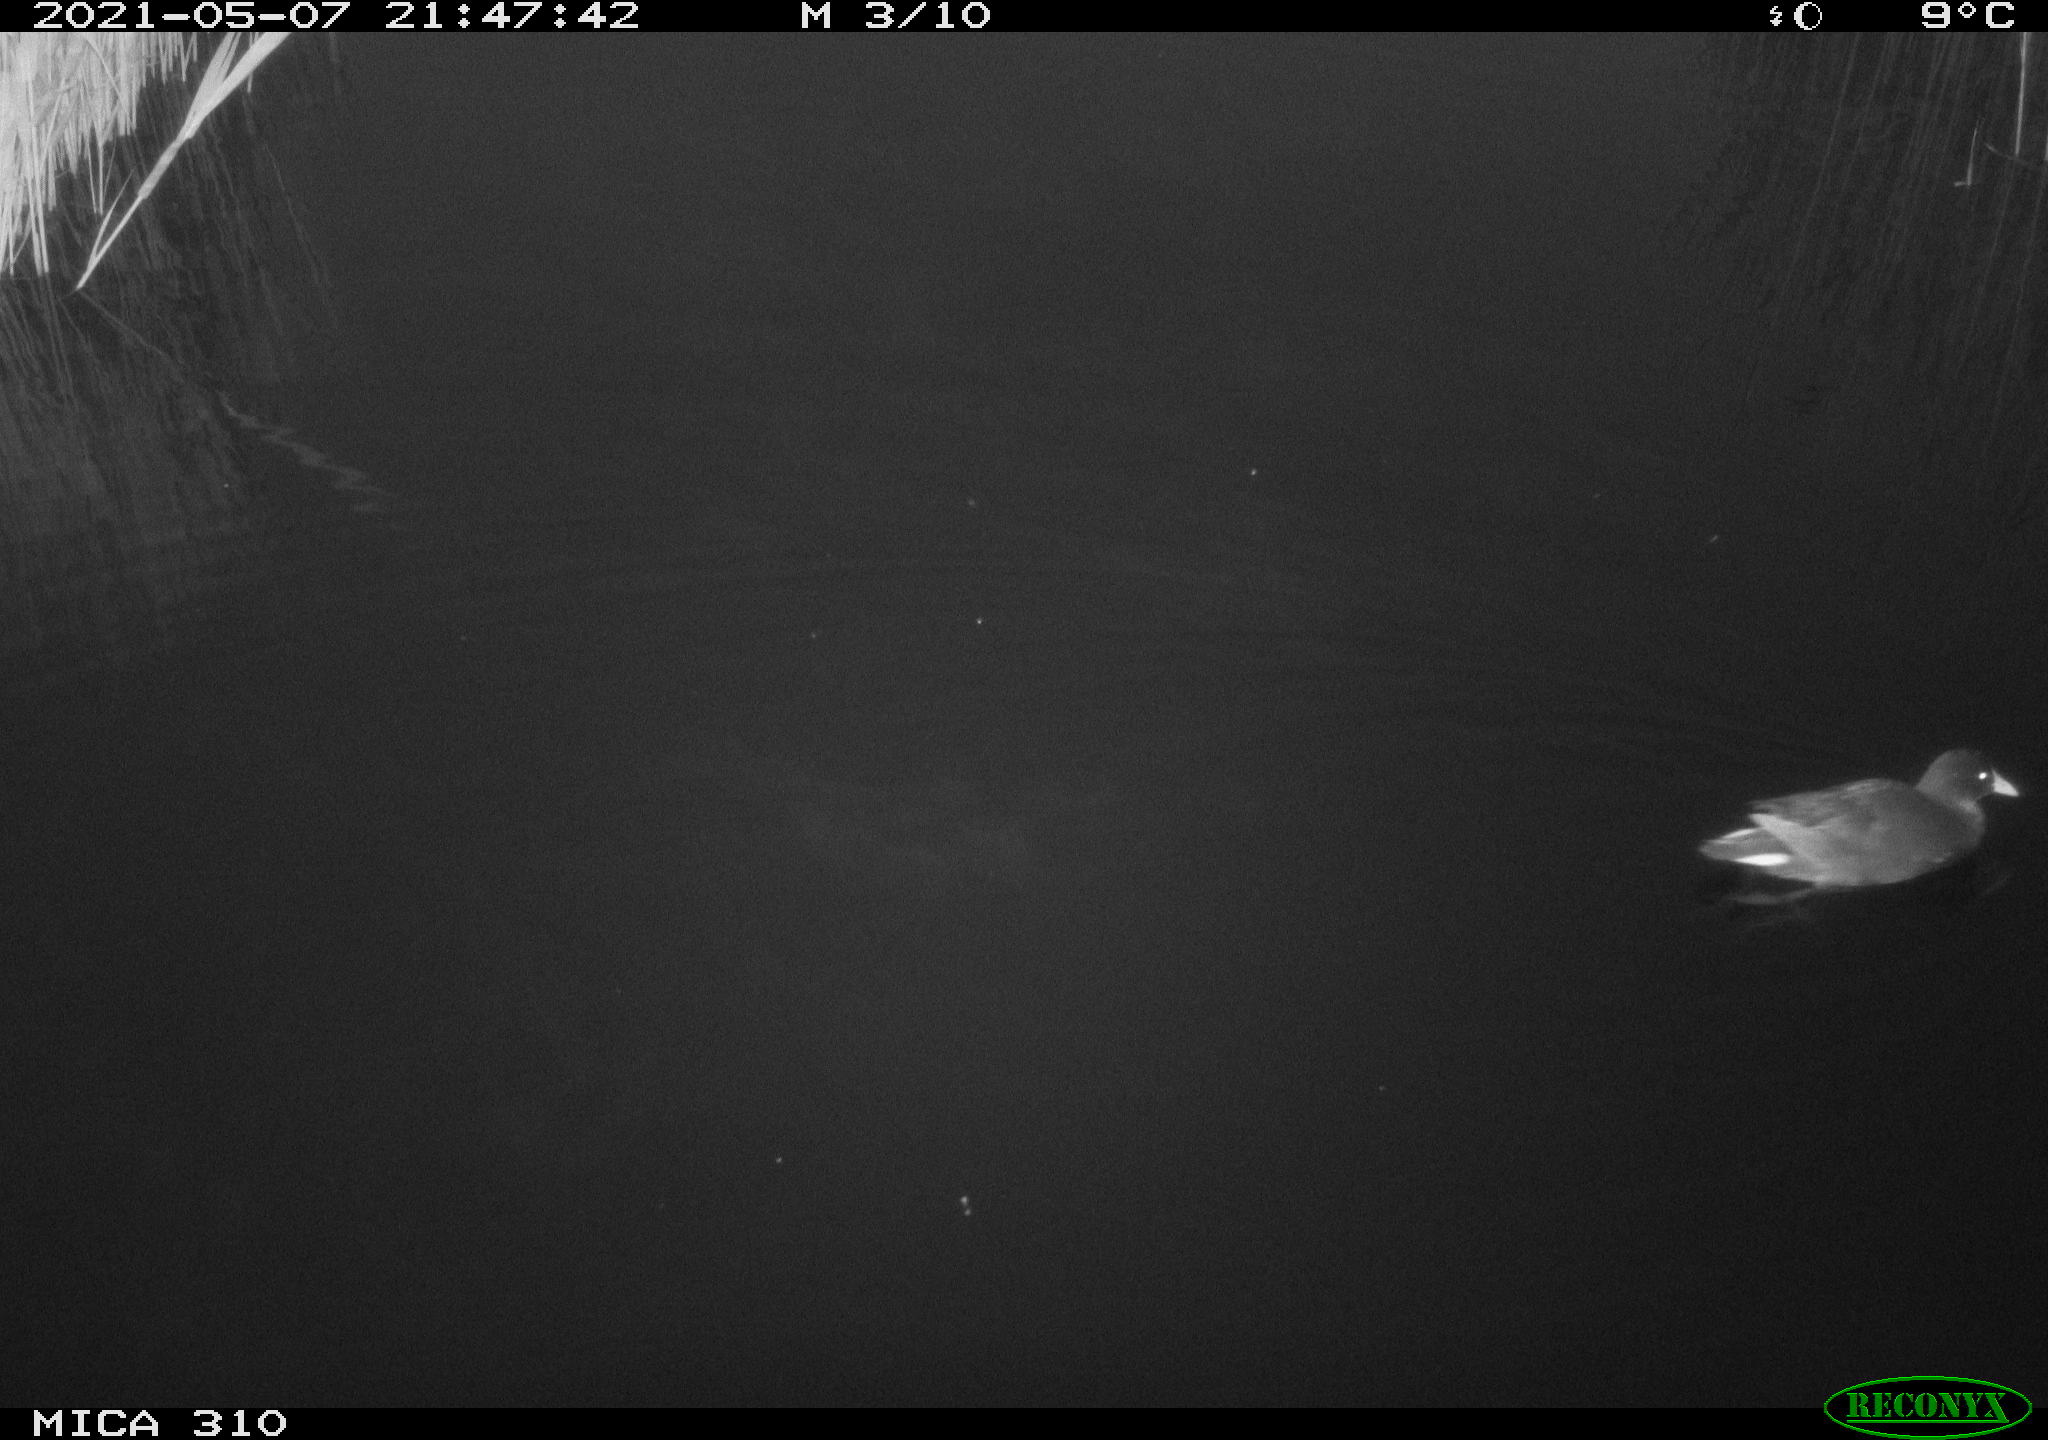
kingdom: Animalia
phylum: Chordata
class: Aves
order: Gruiformes
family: Rallidae
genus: Gallinula
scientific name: Gallinula chloropus
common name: Common moorhen
